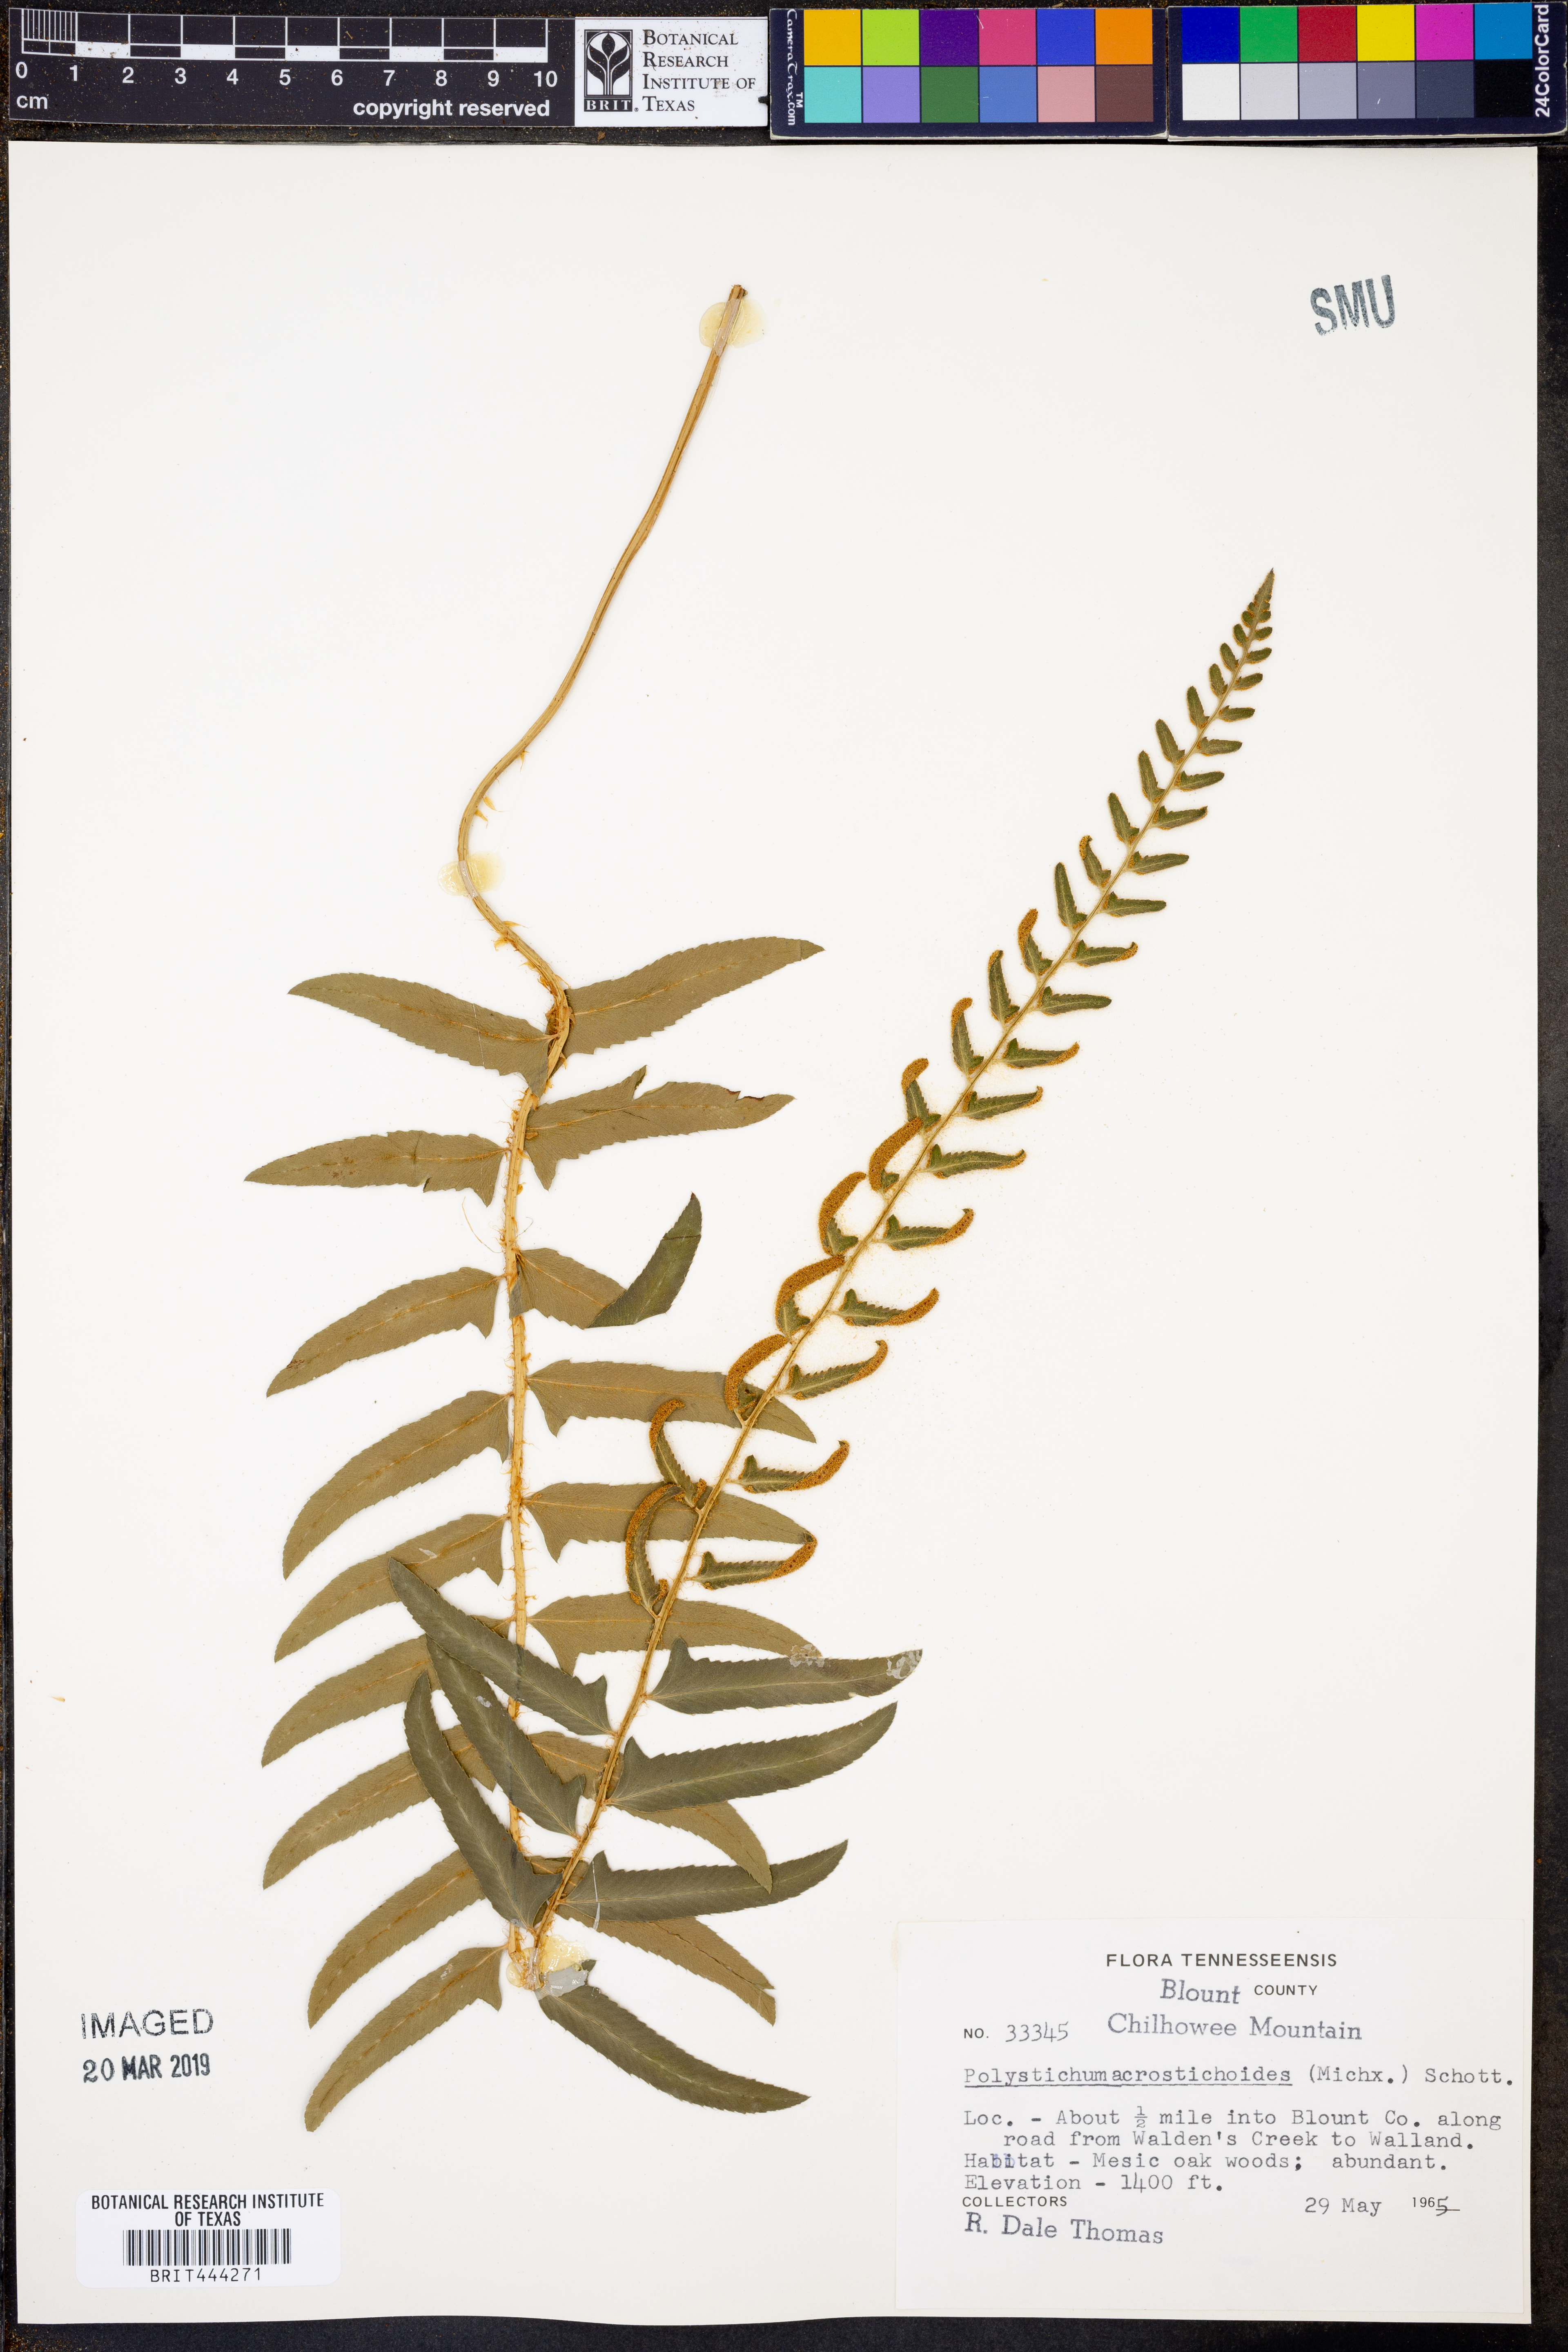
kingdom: Plantae
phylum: Tracheophyta
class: Polypodiopsida
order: Polypodiales
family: Dryopteridaceae
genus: Polystichum
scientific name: Polystichum acrostichoides
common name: Christmas fern
